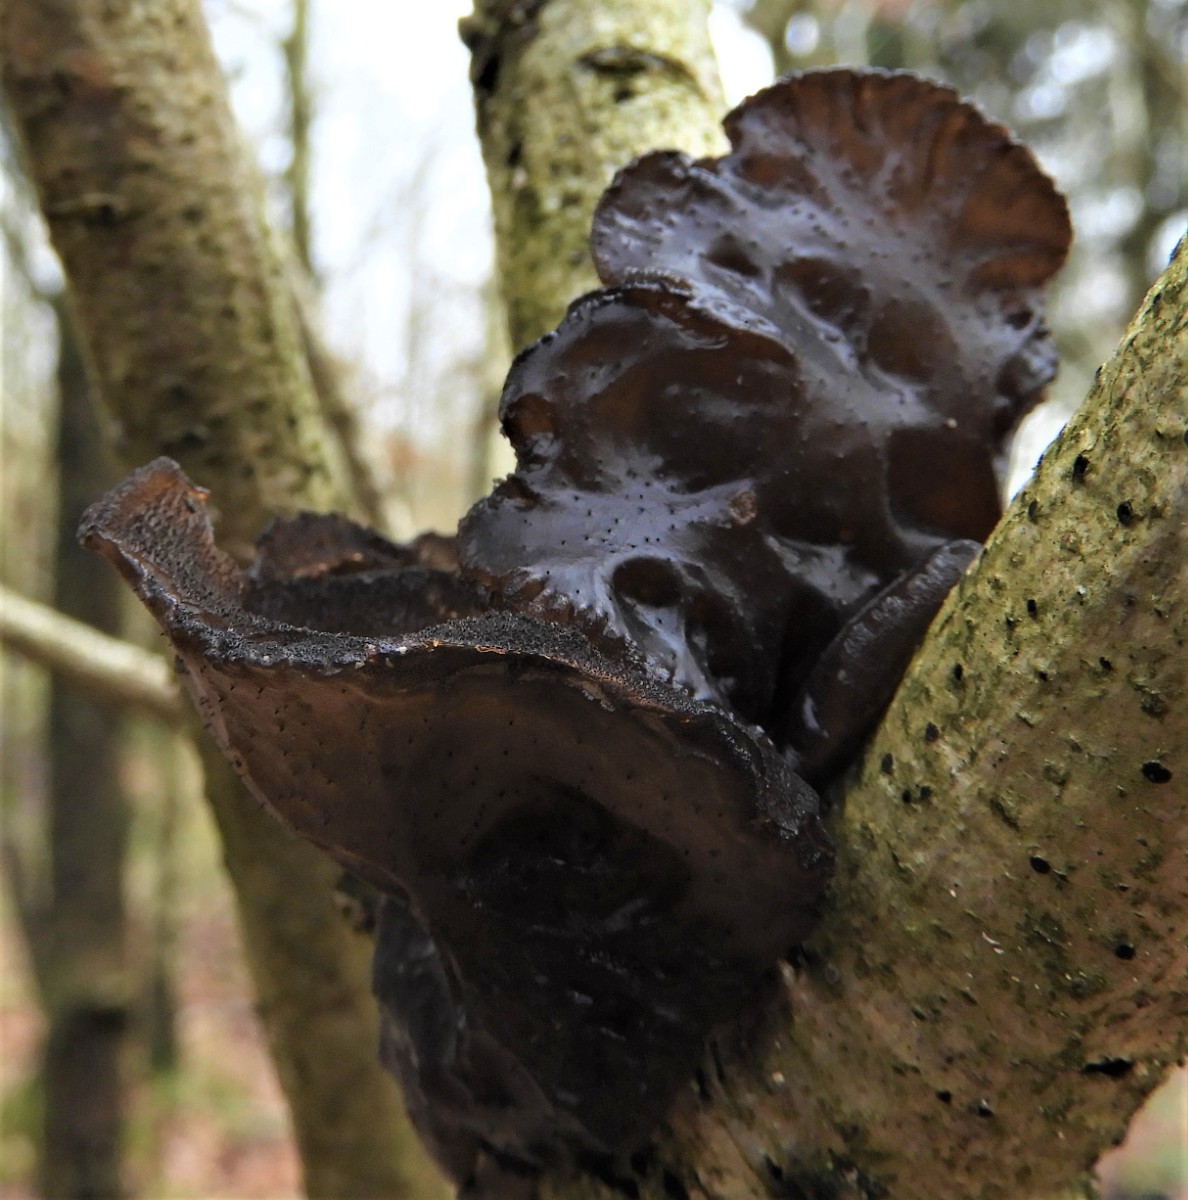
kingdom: Fungi
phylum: Basidiomycota
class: Agaricomycetes
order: Auriculariales
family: Auriculariaceae
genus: Exidia
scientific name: Exidia glandulosa
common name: ege-bævretop
